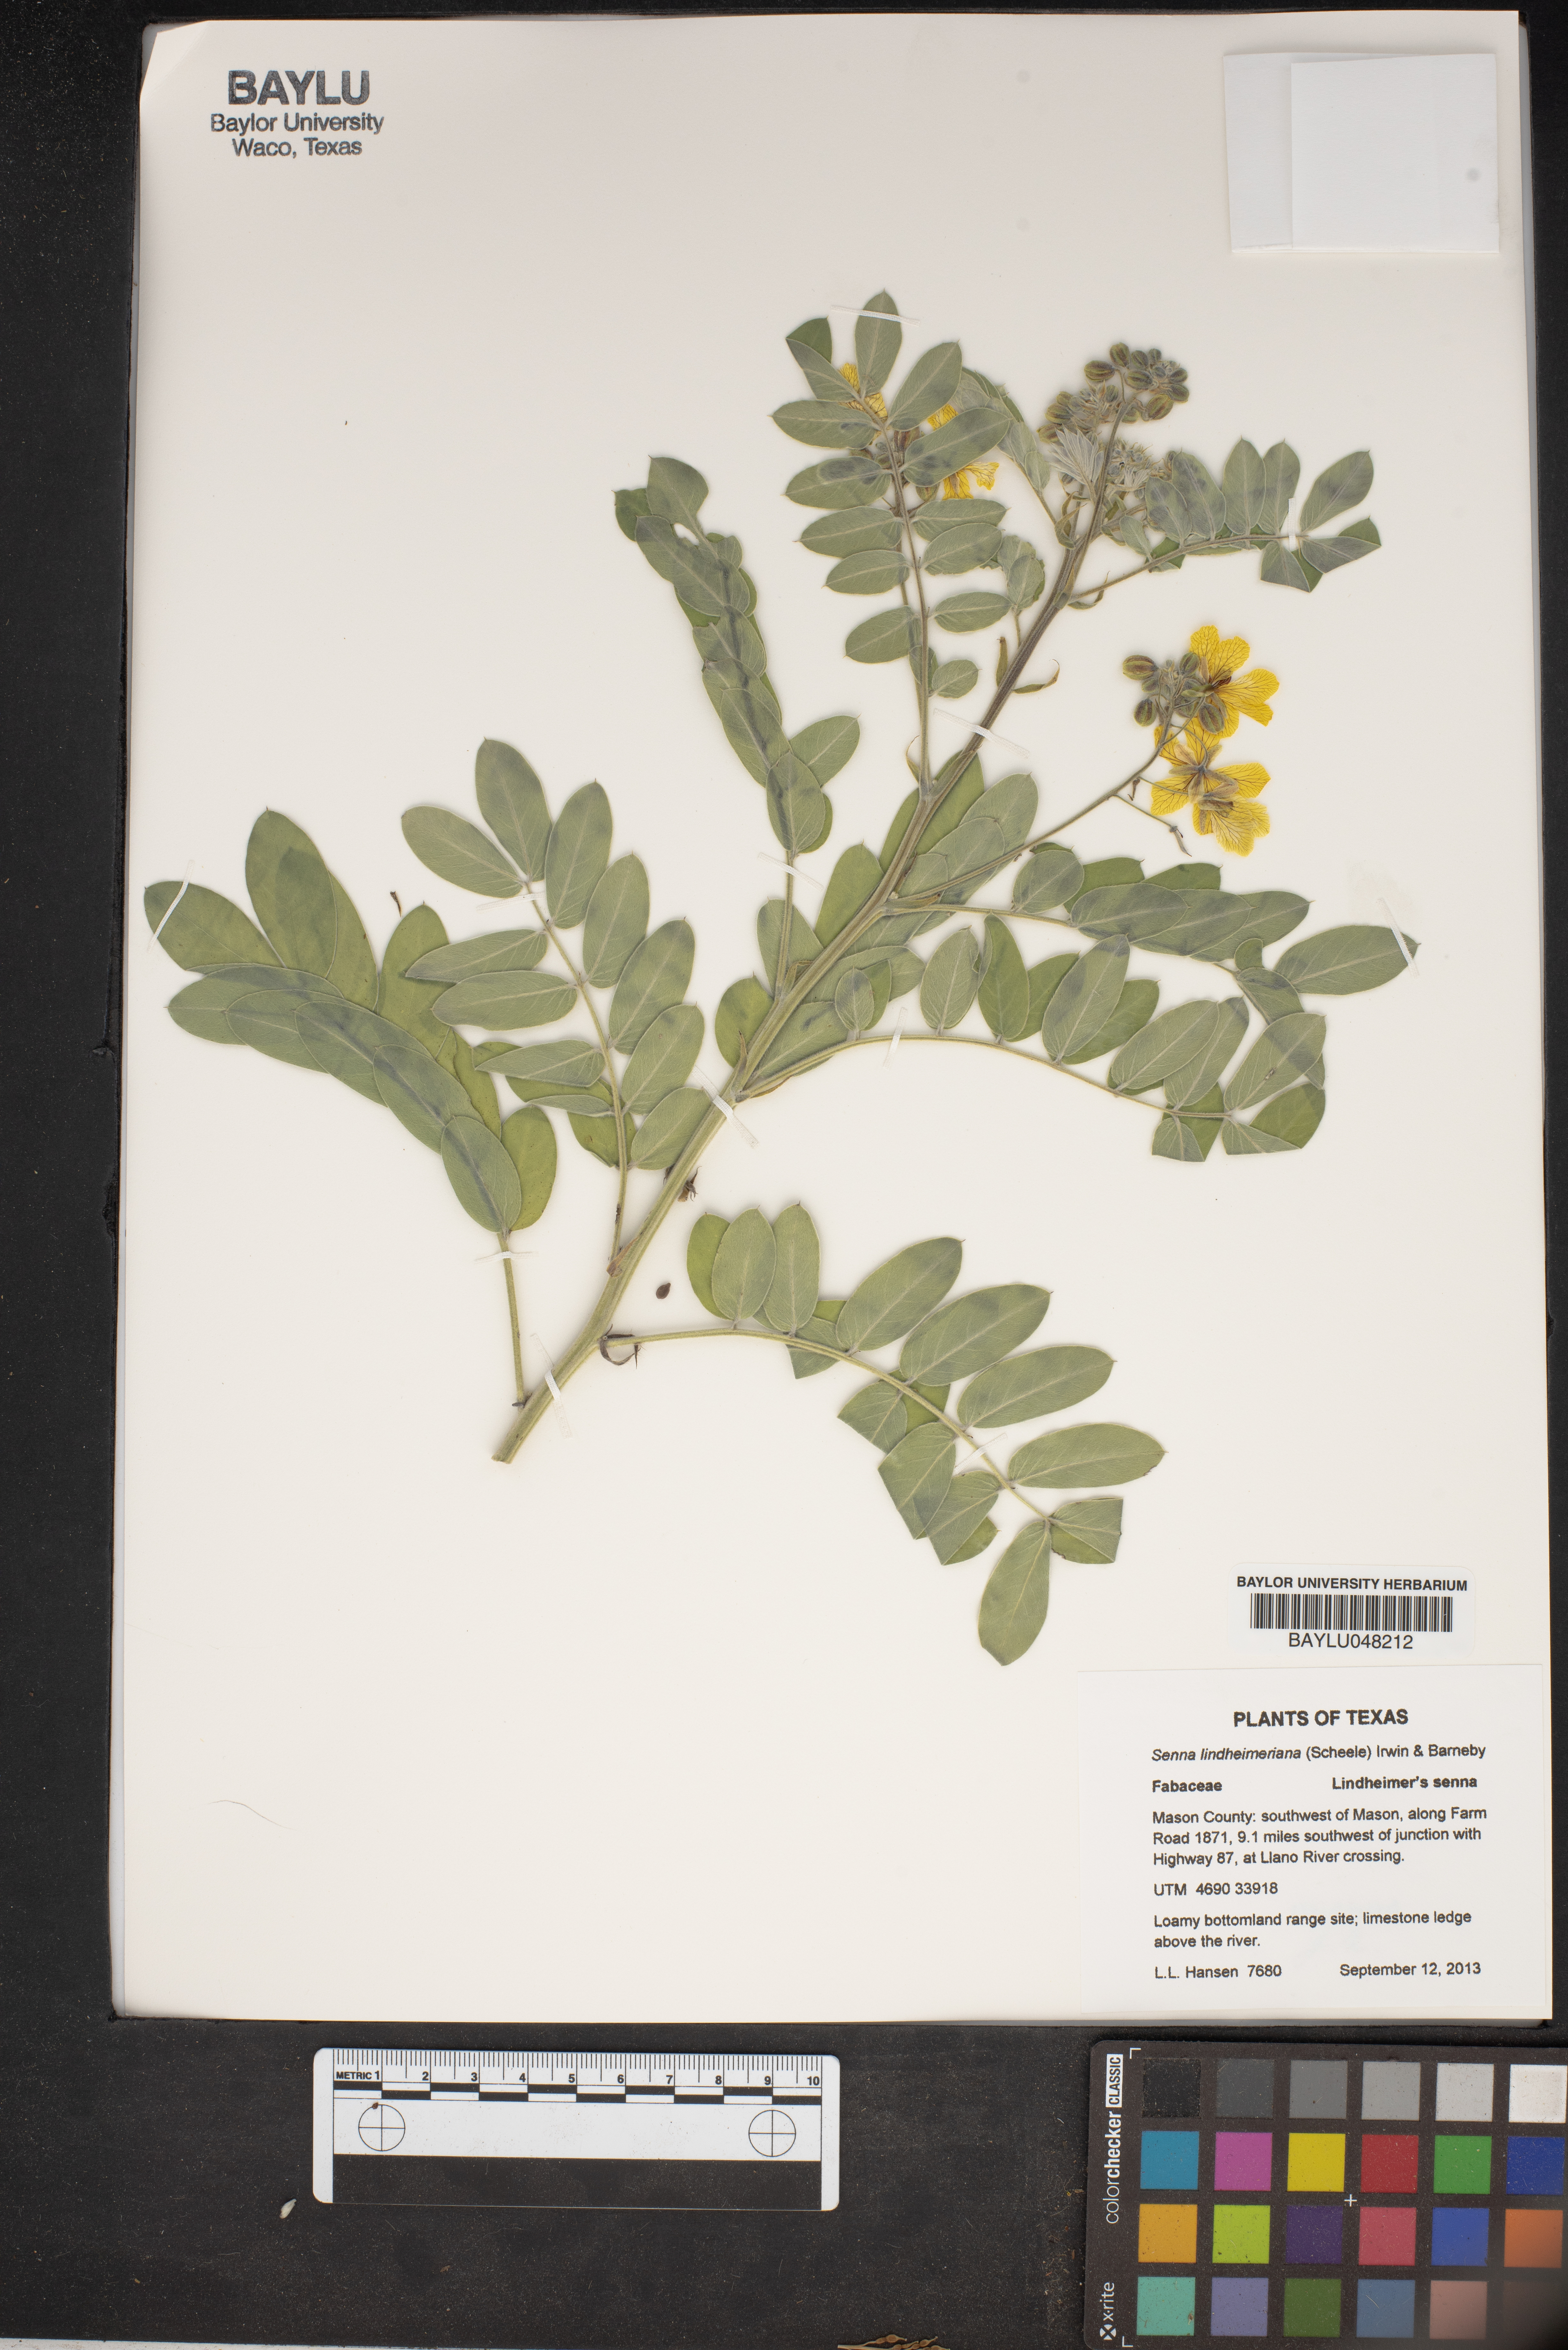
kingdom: Plantae
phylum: Tracheophyta
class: Magnoliopsida
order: Fabales
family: Fabaceae
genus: Senna
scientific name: Senna lindheimeriana
